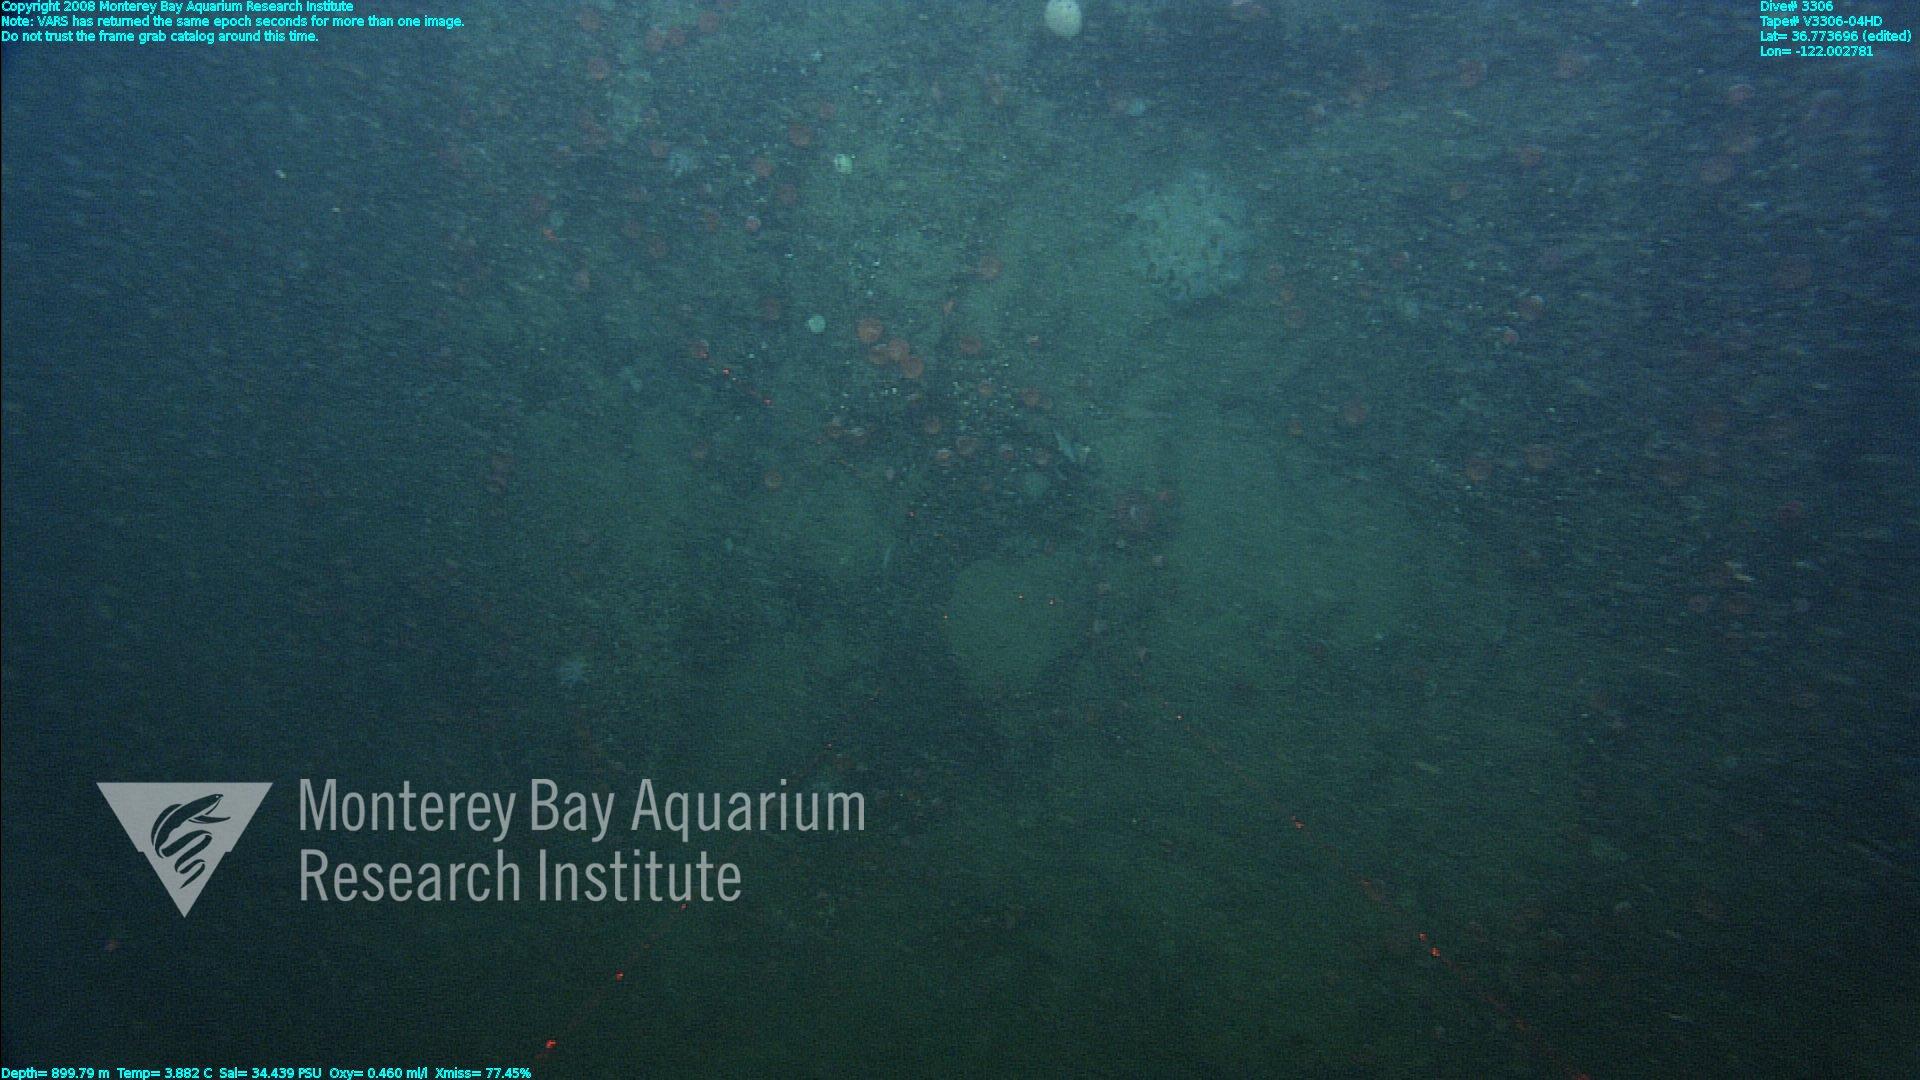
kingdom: Animalia
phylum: Porifera
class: Hexactinellida
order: Sceptrulophora
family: Farreidae
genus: Farrea
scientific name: Farrea
